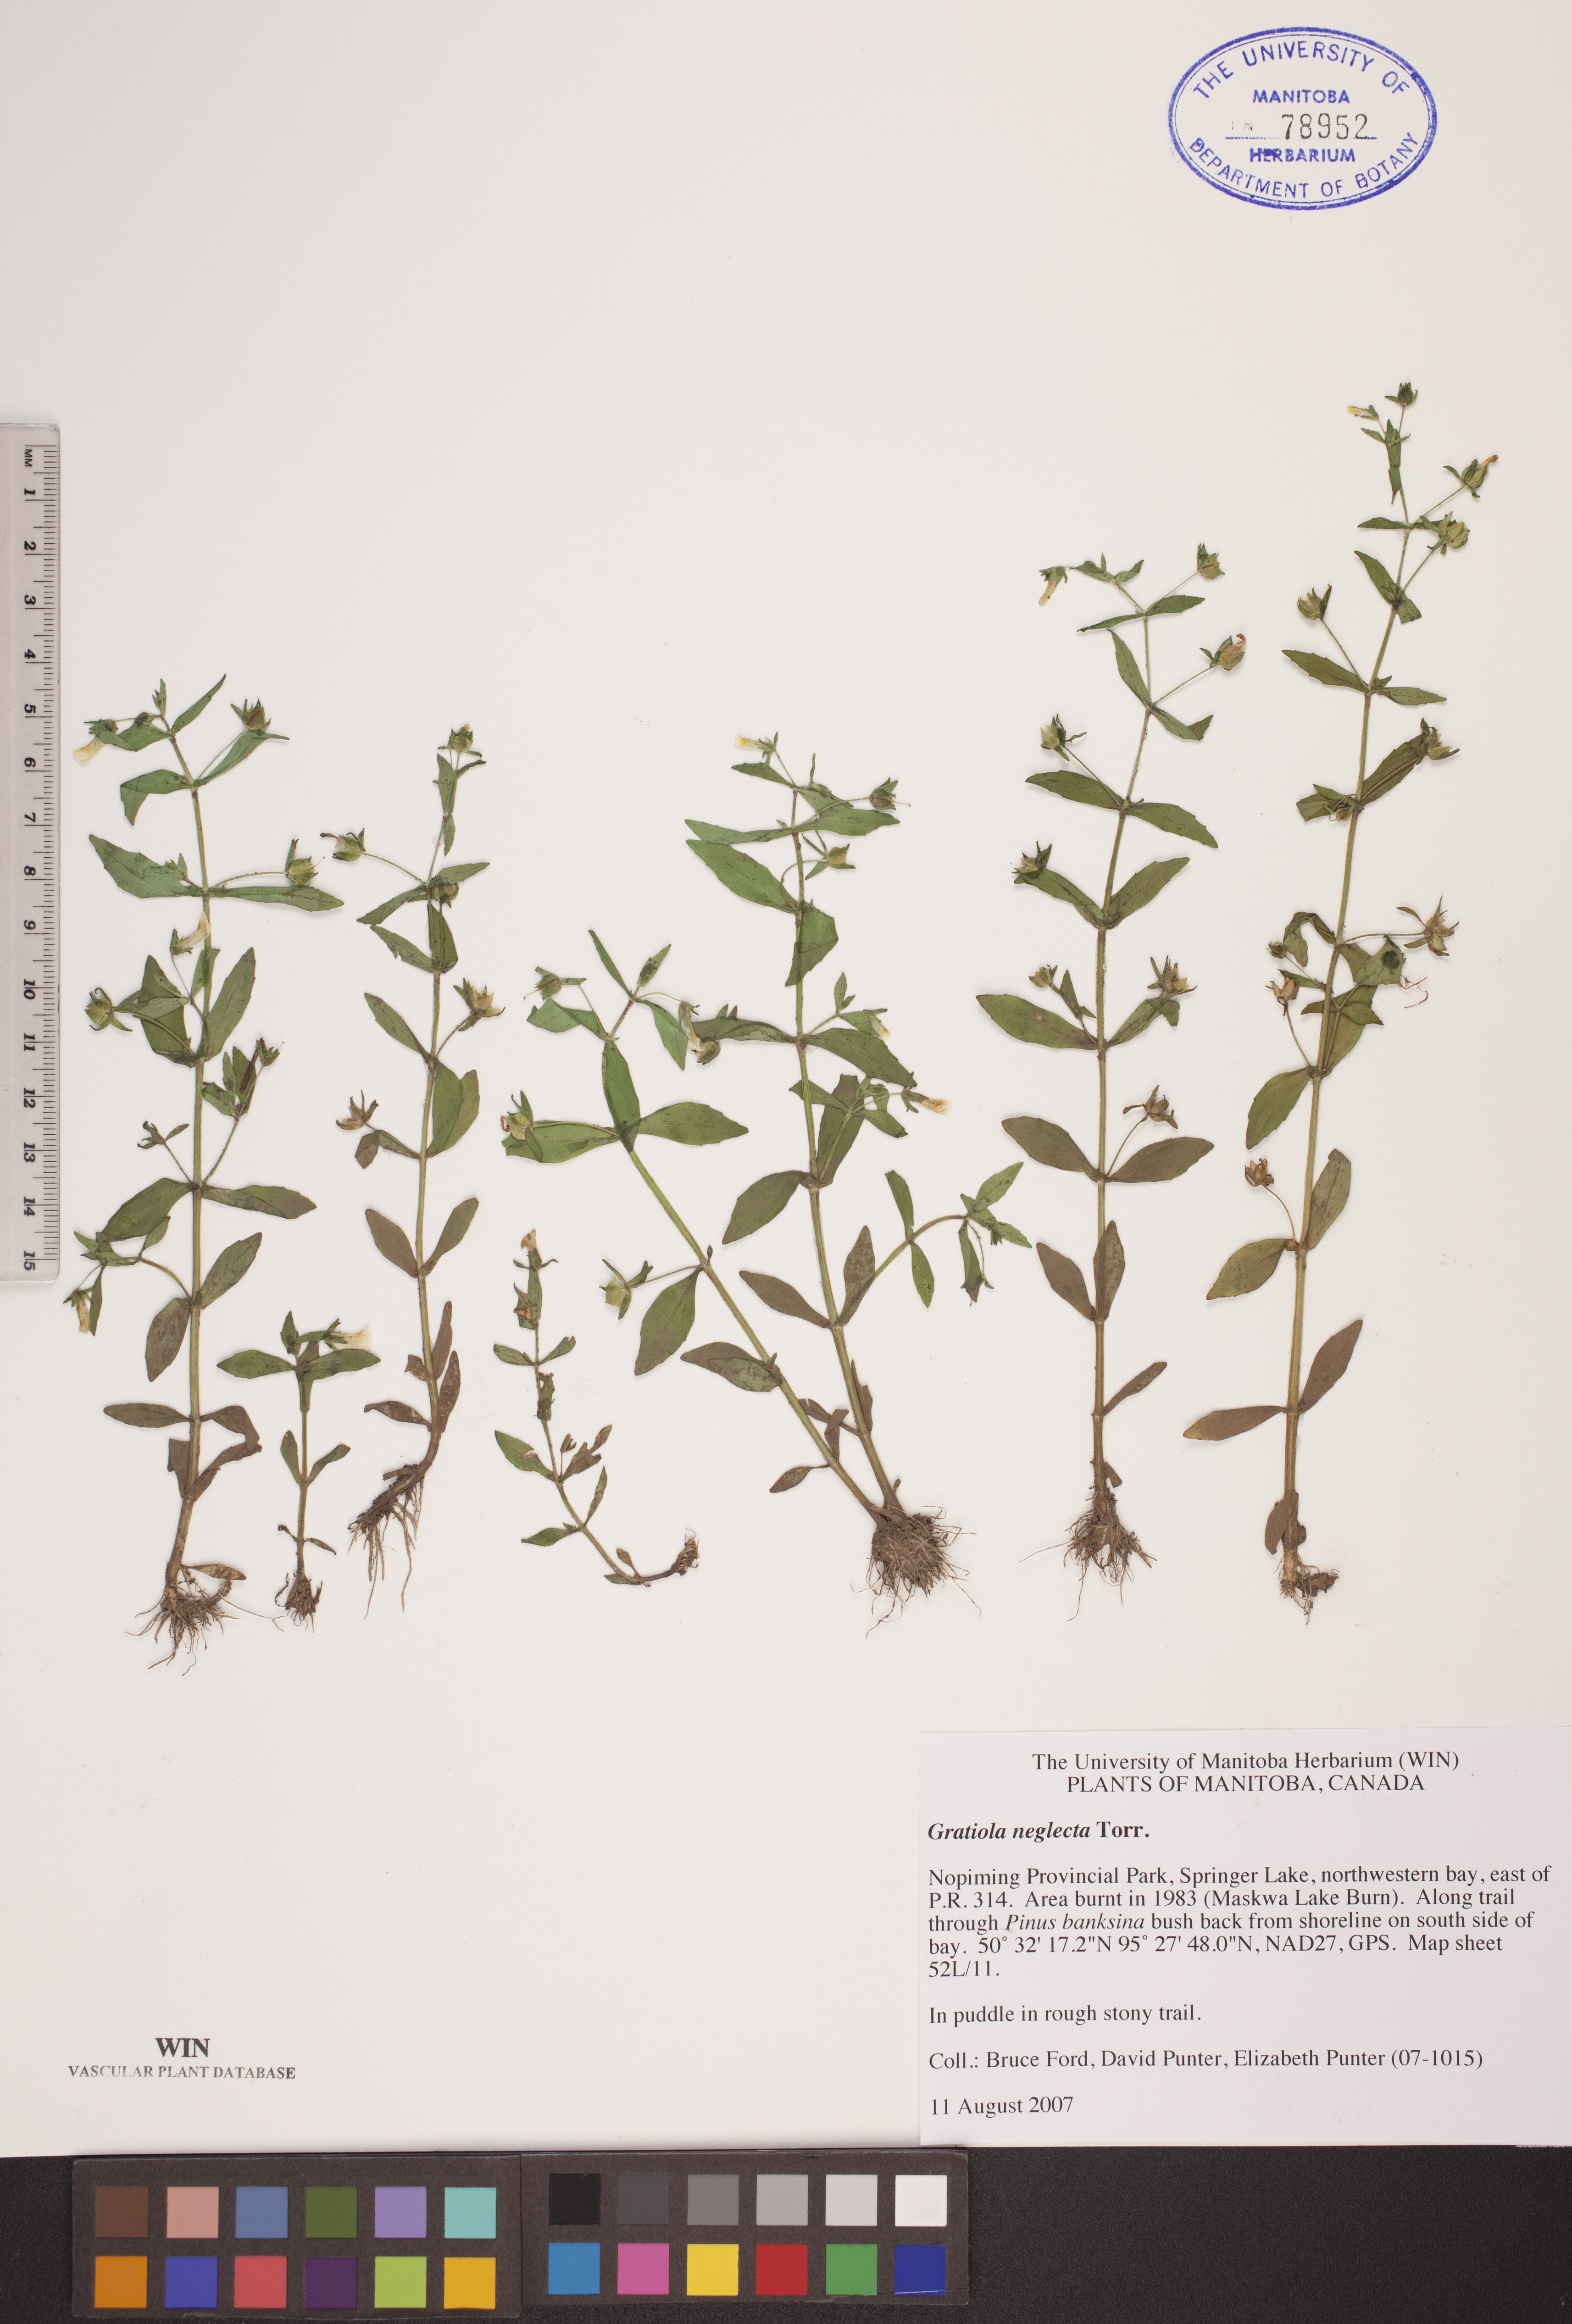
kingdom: Plantae
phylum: Tracheophyta
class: Magnoliopsida
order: Lamiales
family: Plantaginaceae
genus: Gratiola
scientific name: Gratiola neglecta
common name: American hedge-hyssop
